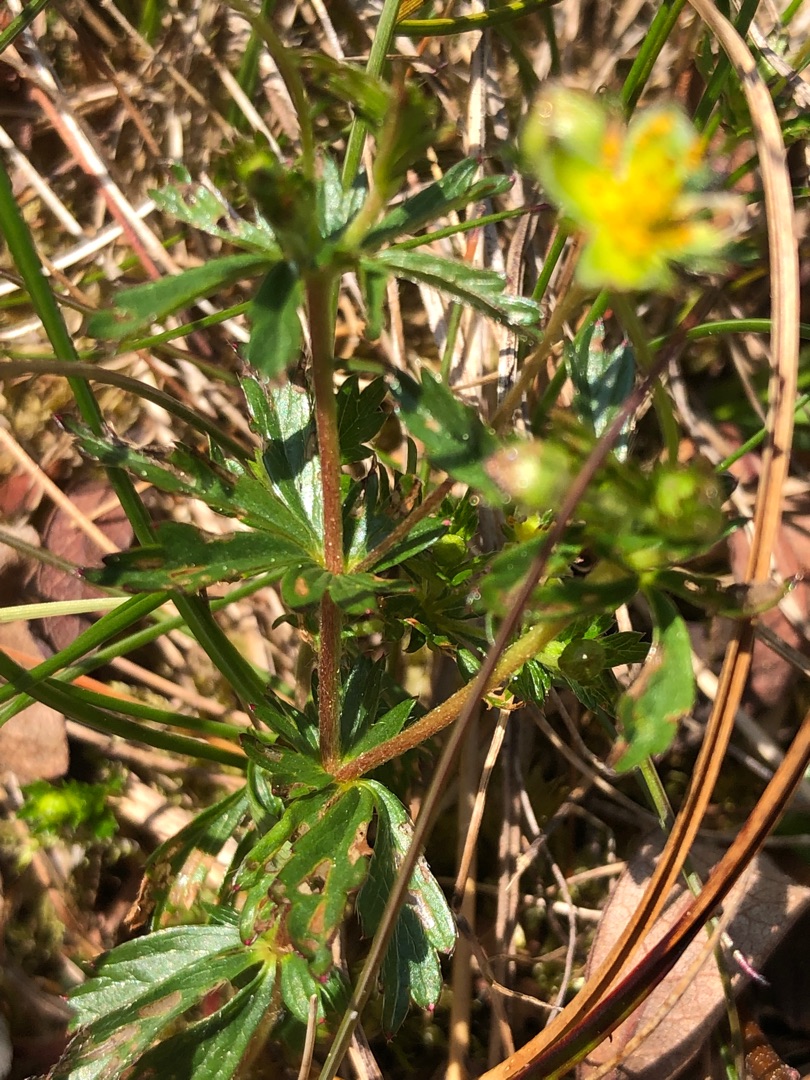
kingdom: Plantae
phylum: Tracheophyta
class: Magnoliopsida
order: Rosales
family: Rosaceae
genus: Potentilla
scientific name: Potentilla erecta
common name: Tormentil
